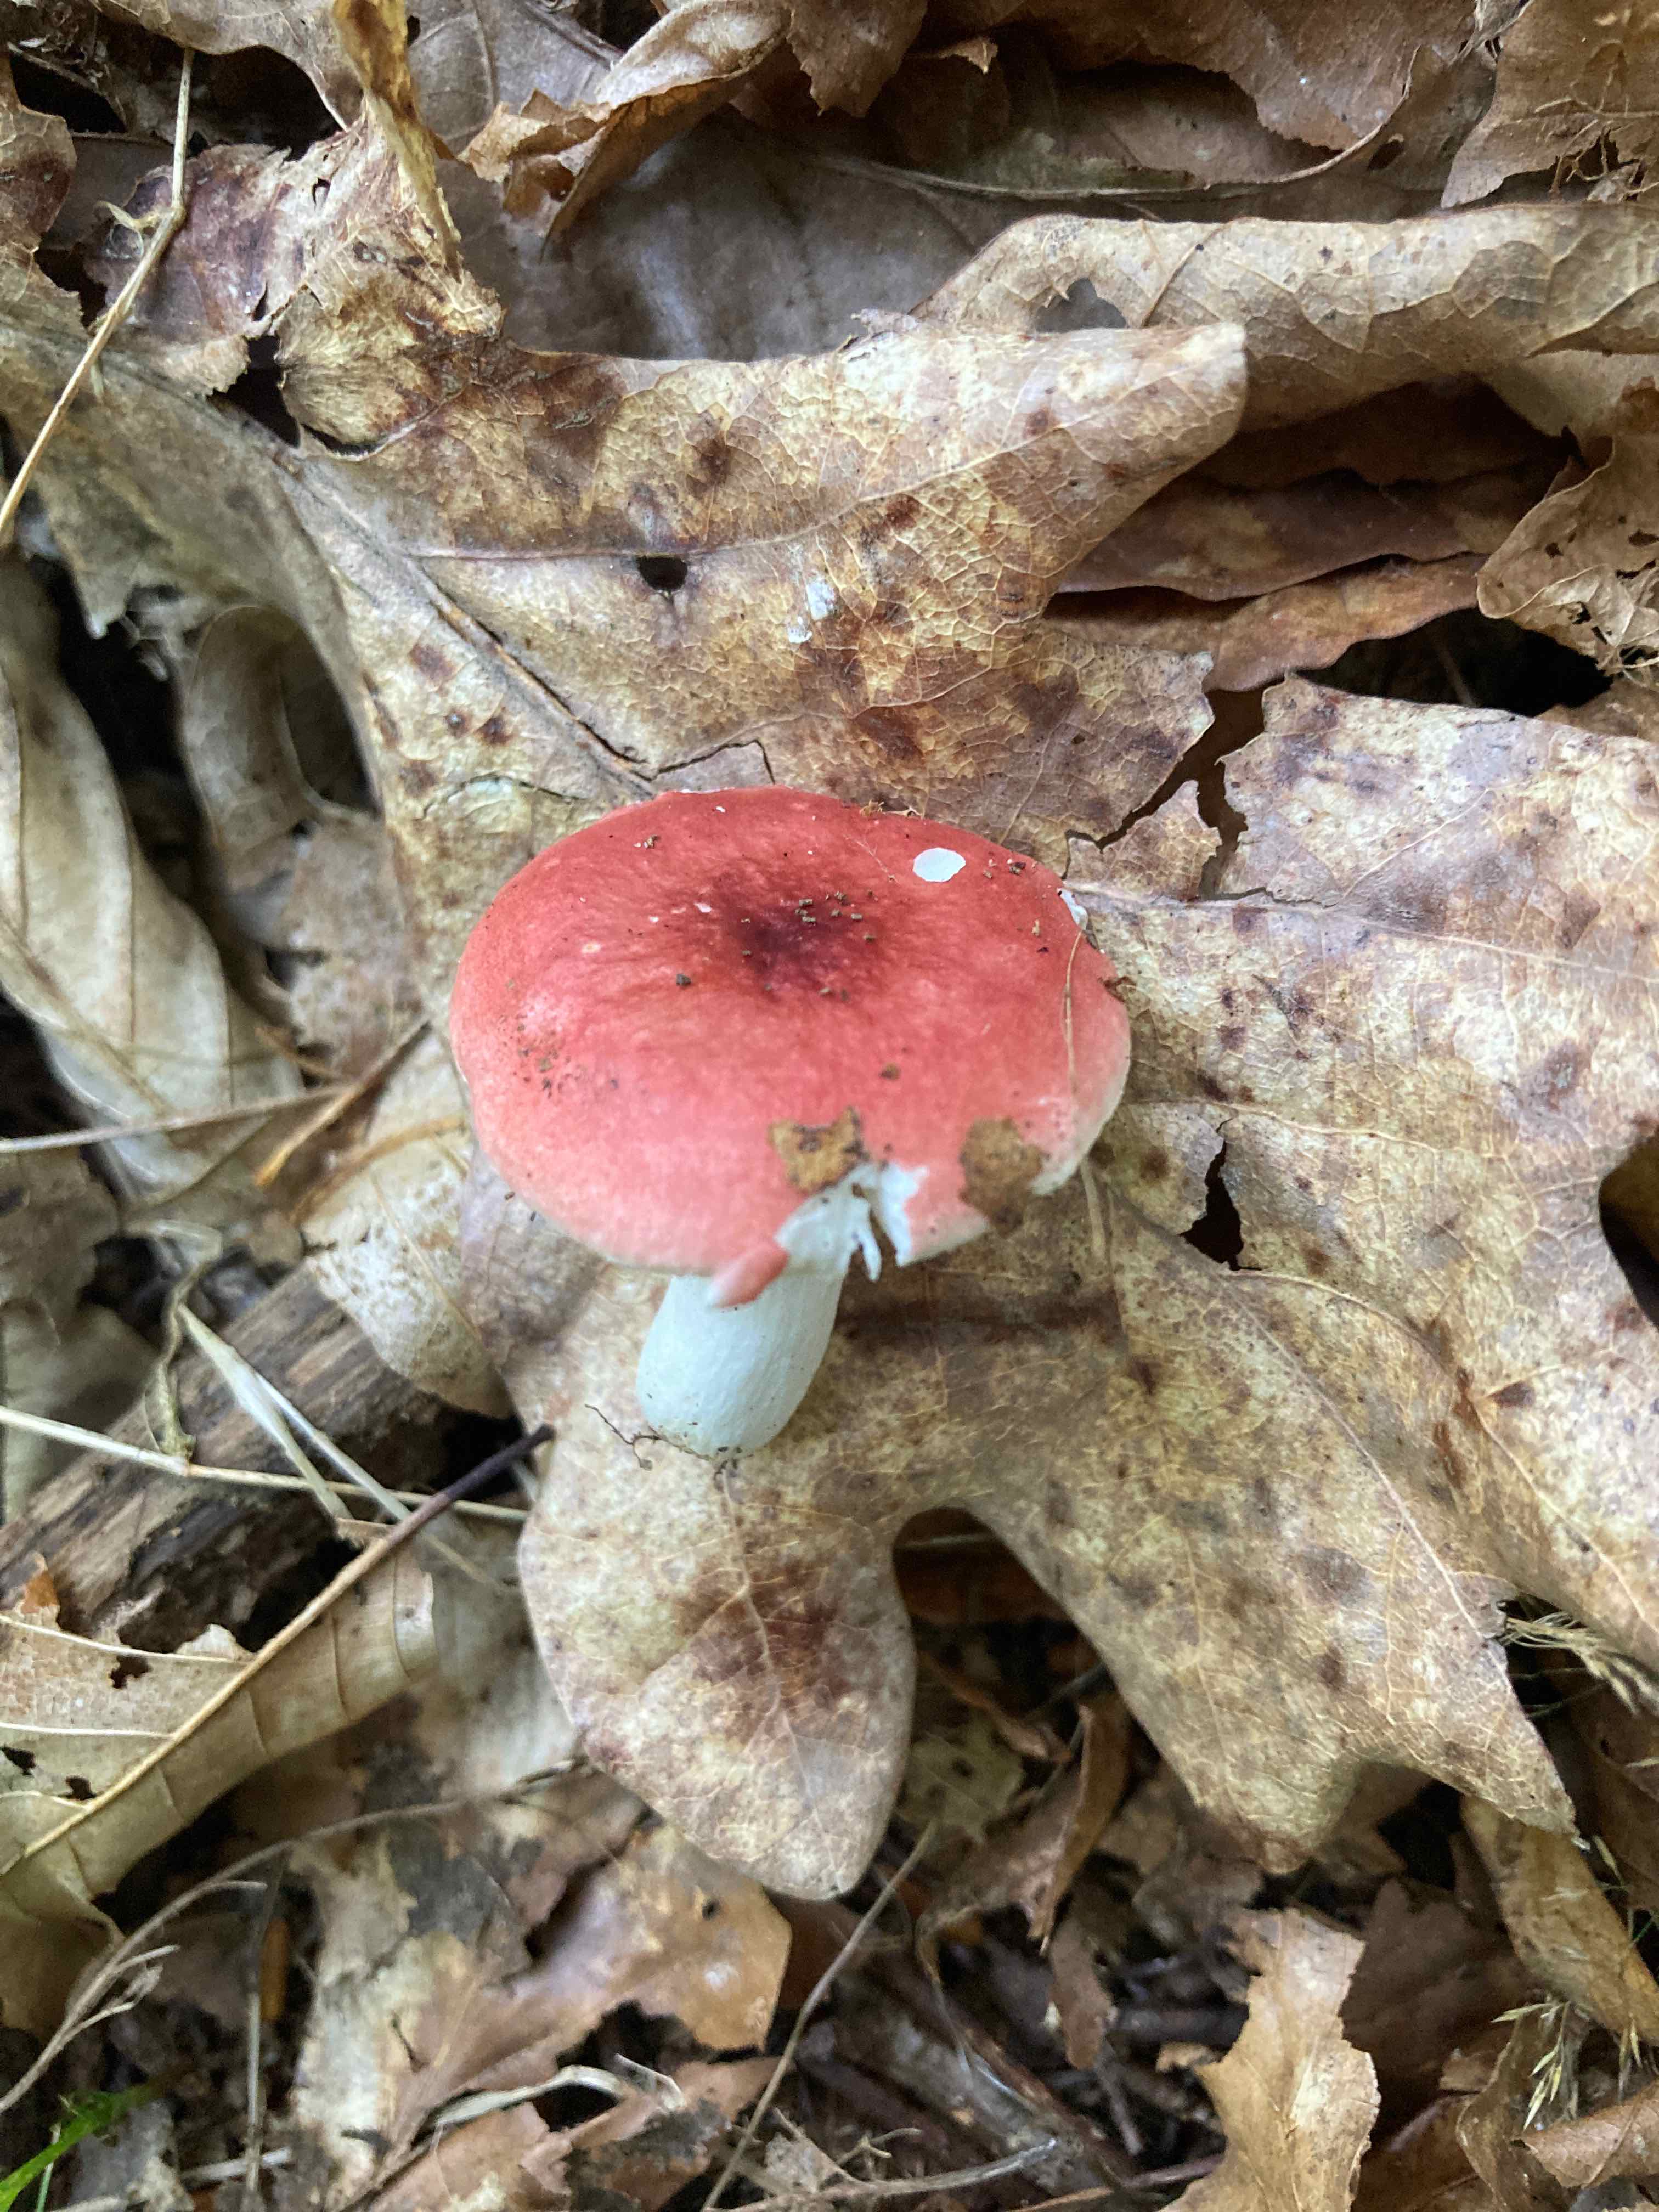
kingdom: Fungi
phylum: Basidiomycota
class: Agaricomycetes
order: Russulales
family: Russulaceae
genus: Russula
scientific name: Russula puellula
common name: gulnende skørhat
